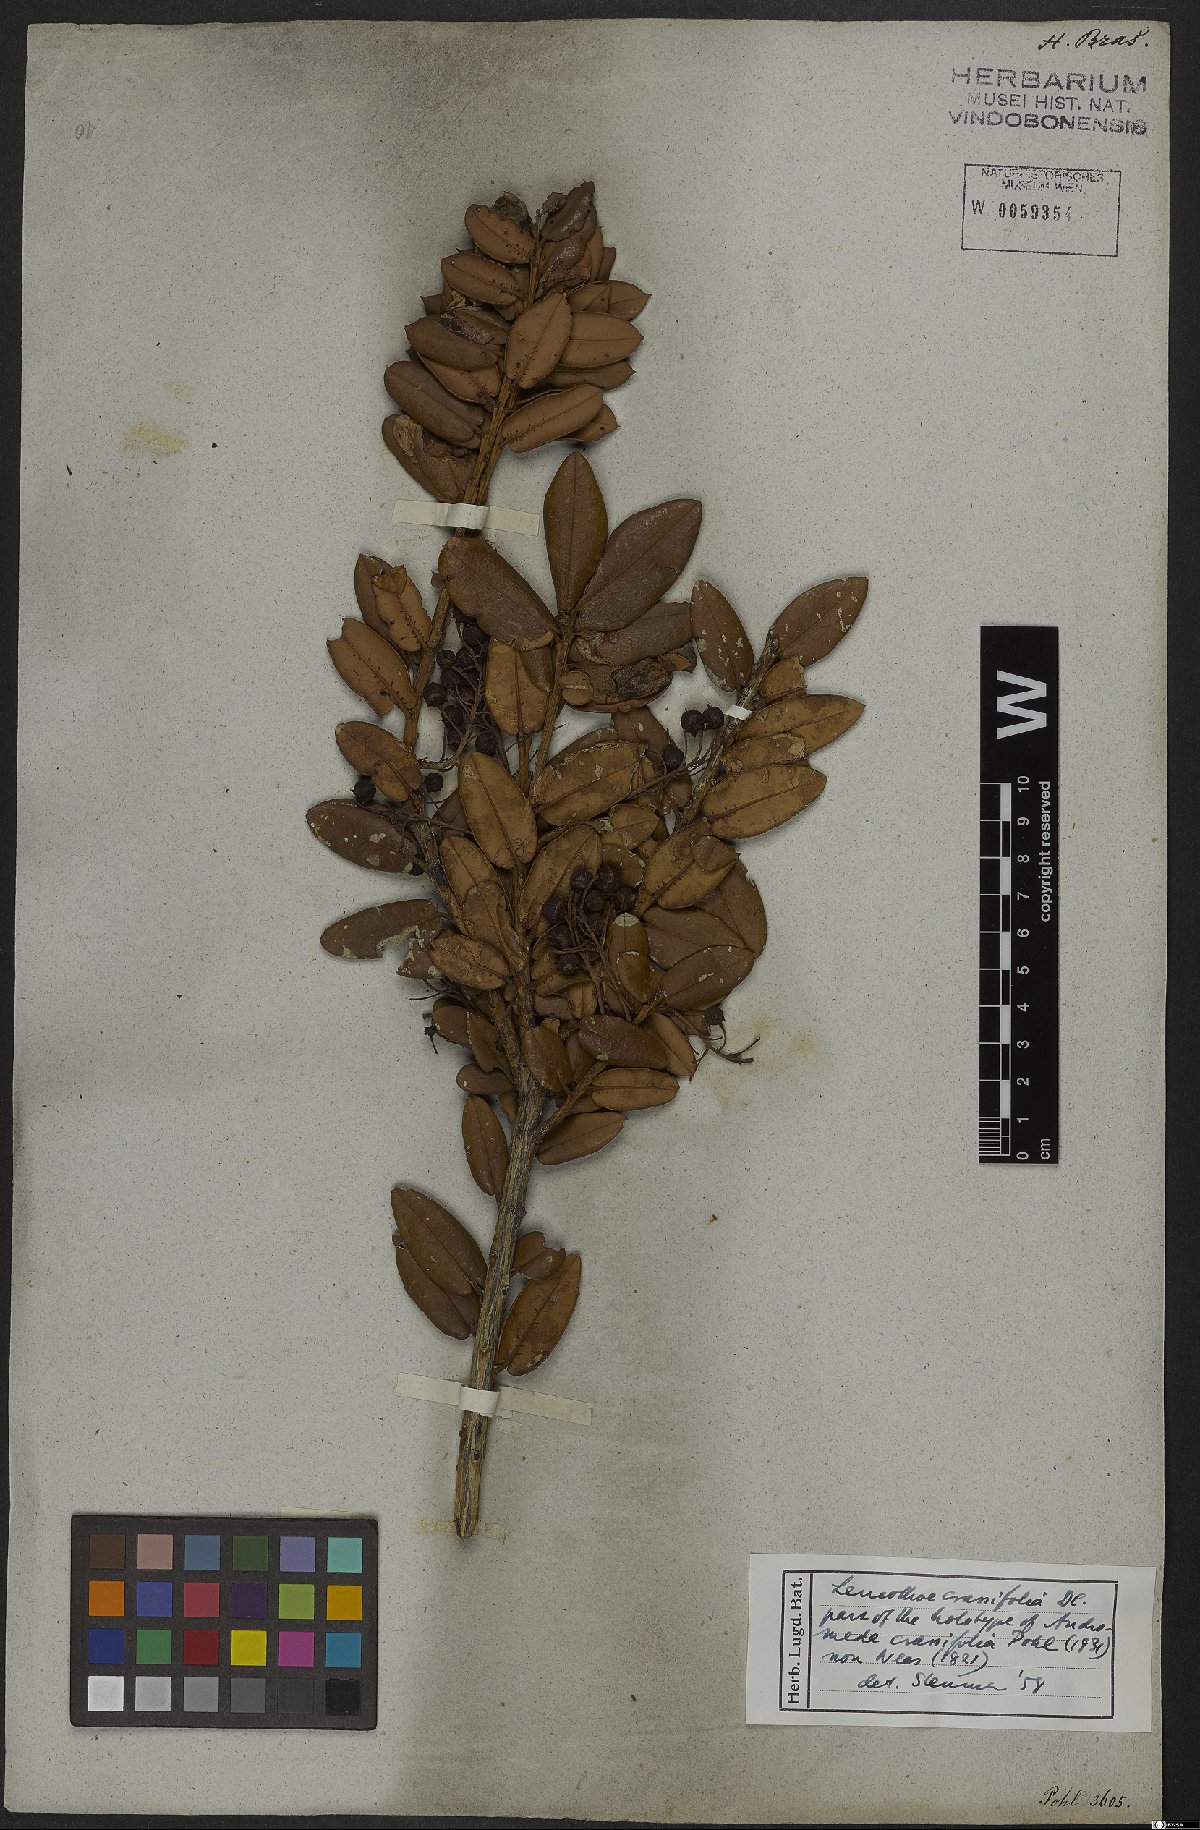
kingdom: Plantae
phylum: Tracheophyta
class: Magnoliopsida
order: Ericales
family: Ericaceae
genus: Agarista
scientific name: Agarista coriifolia
